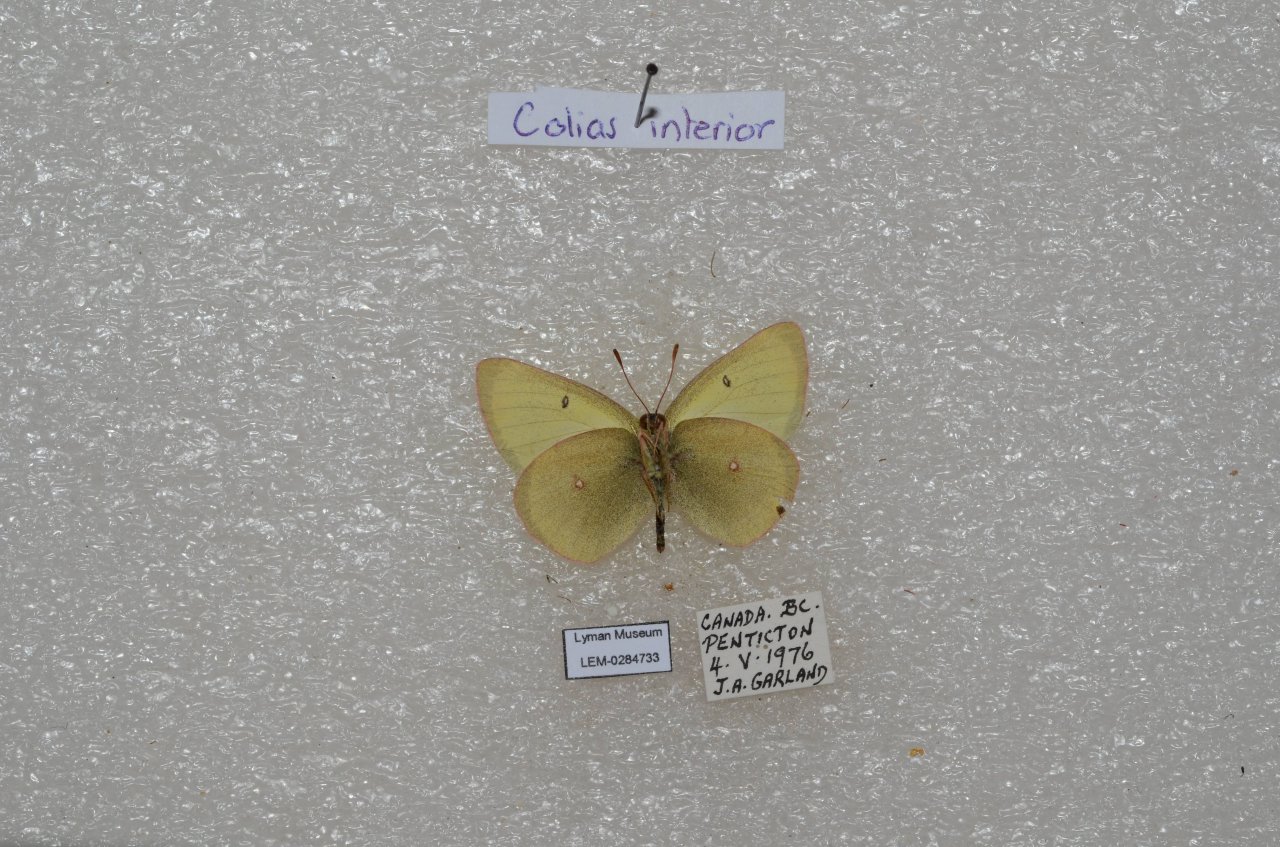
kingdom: Animalia
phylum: Arthropoda
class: Insecta
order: Lepidoptera
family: Pieridae
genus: Colias
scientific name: Colias interior
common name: Pink-edged Sulphur
